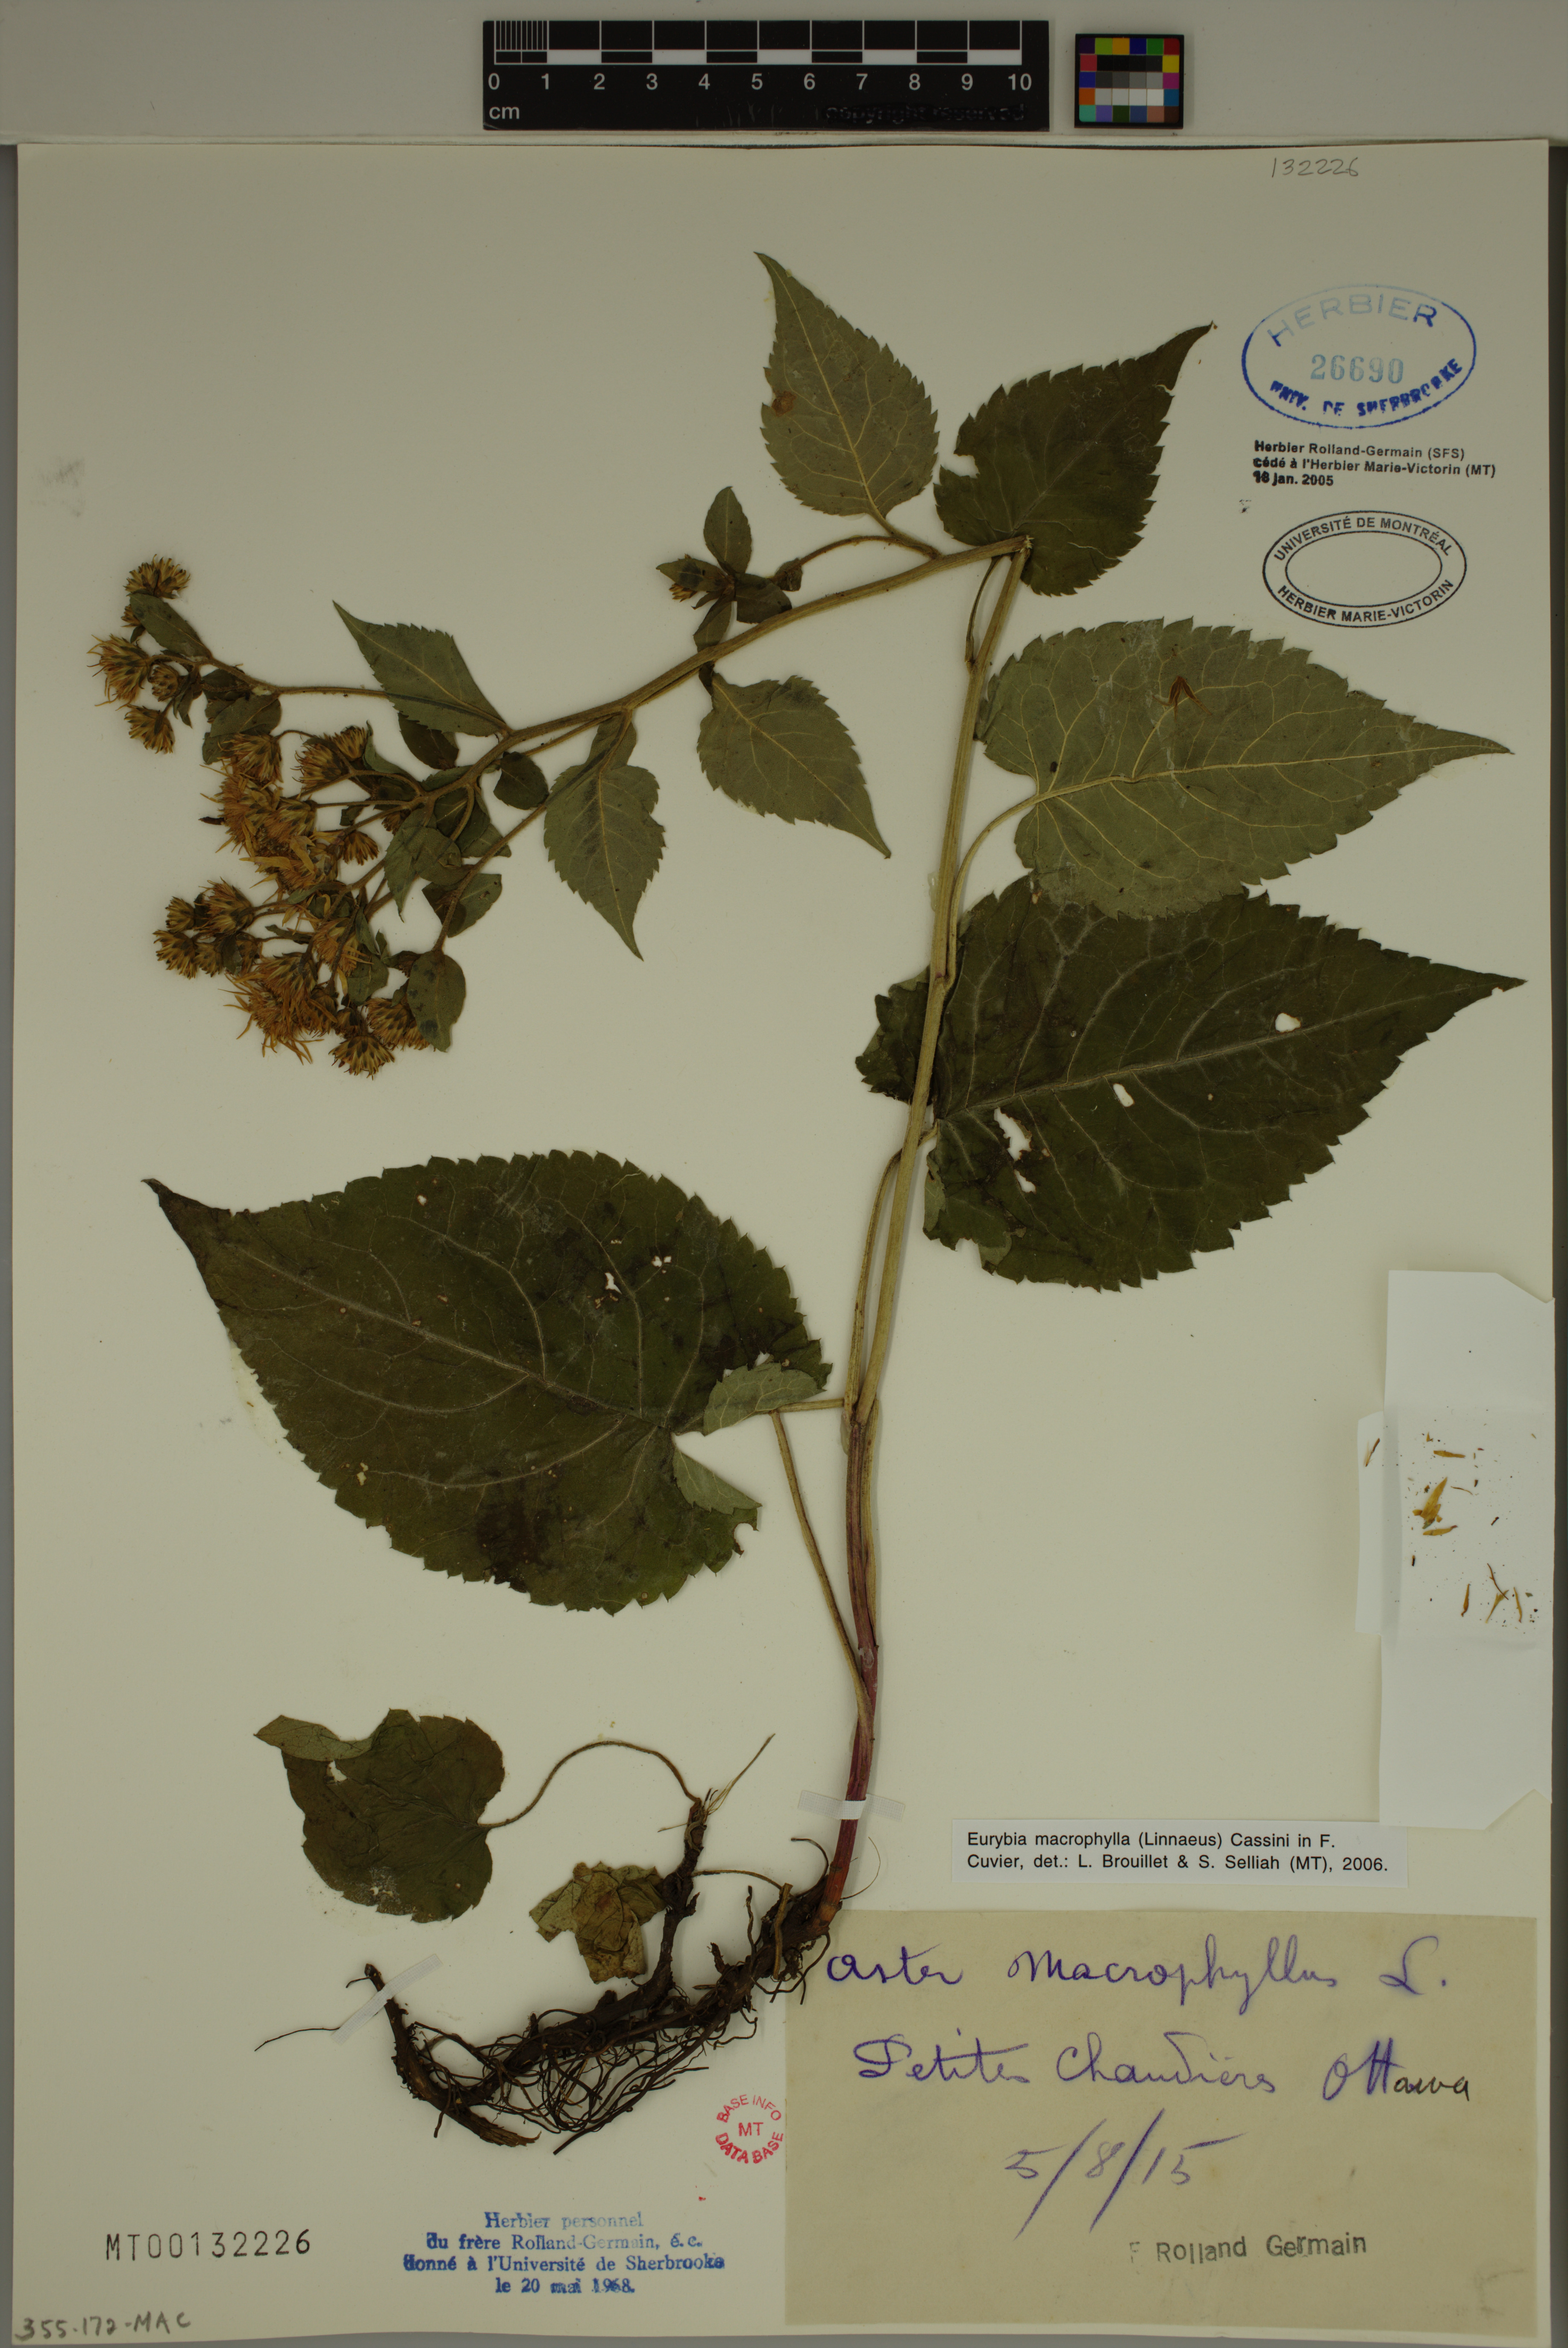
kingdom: Plantae
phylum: Tracheophyta
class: Magnoliopsida
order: Asterales
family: Asteraceae
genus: Eurybia
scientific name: Eurybia macrophylla
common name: Big-leaved aster
